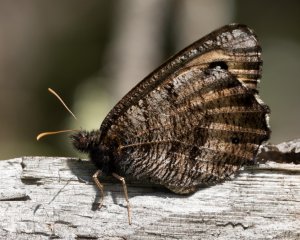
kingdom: Animalia
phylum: Arthropoda
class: Insecta
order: Lepidoptera
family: Nymphalidae
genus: Oeneis
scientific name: Oeneis macounii
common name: Macoun's Arctic
